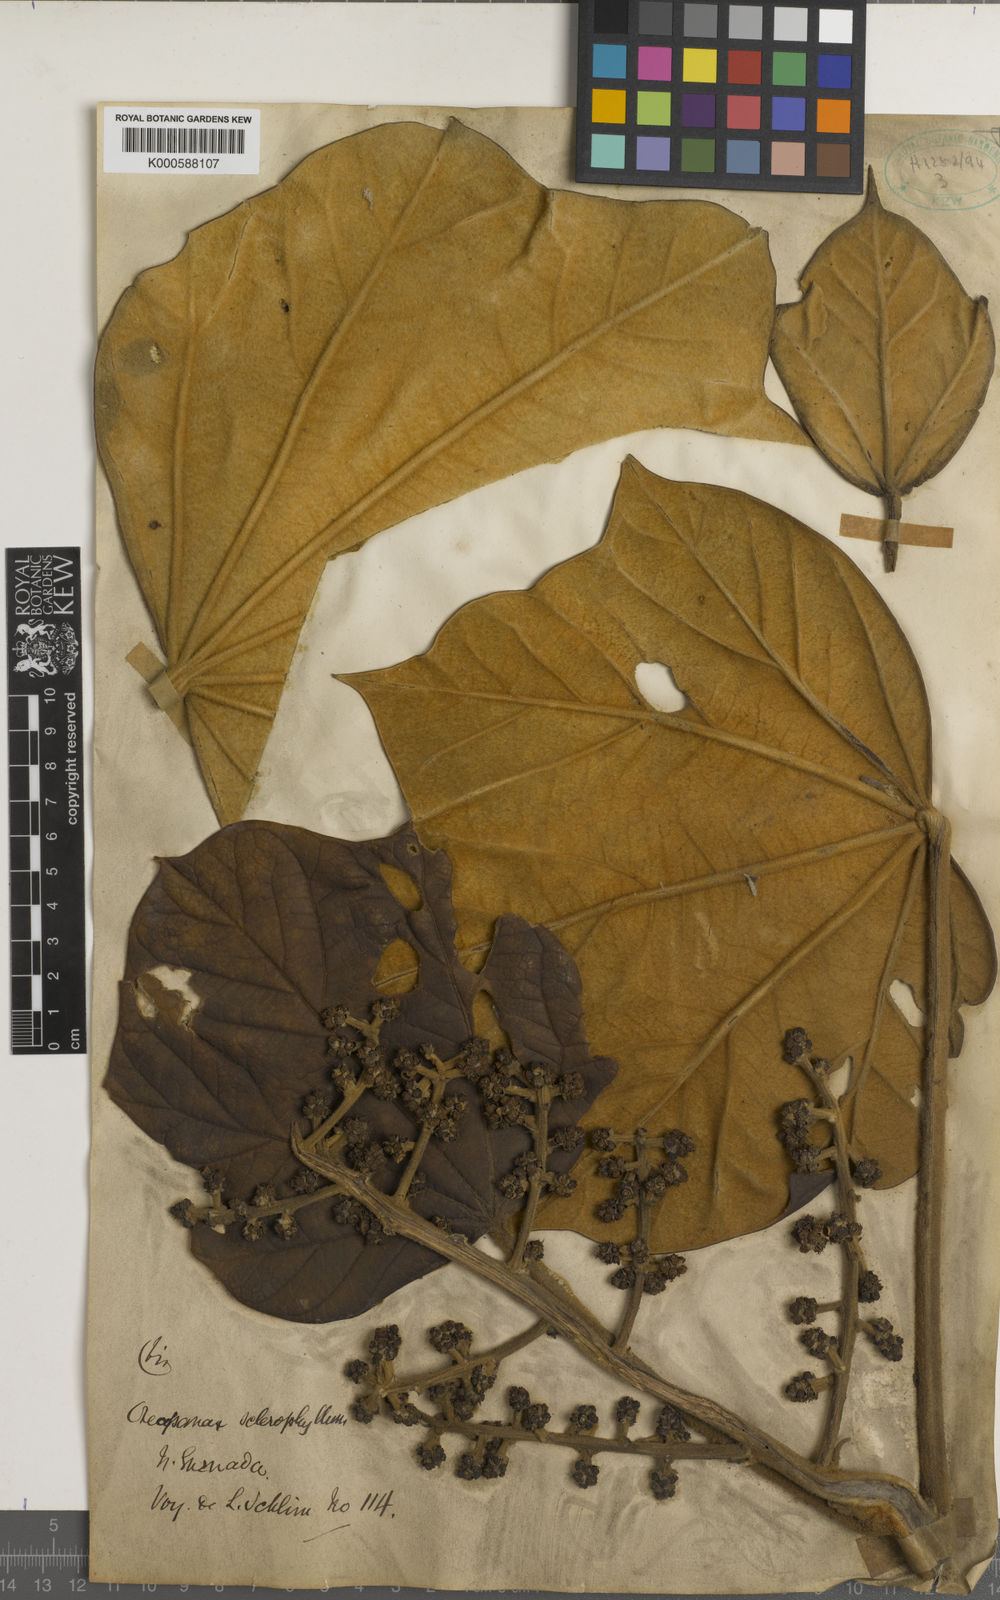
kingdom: Plantae
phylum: Tracheophyta
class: Magnoliopsida
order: Apiales
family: Araliaceae
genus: Oreopanax
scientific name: Oreopanax
